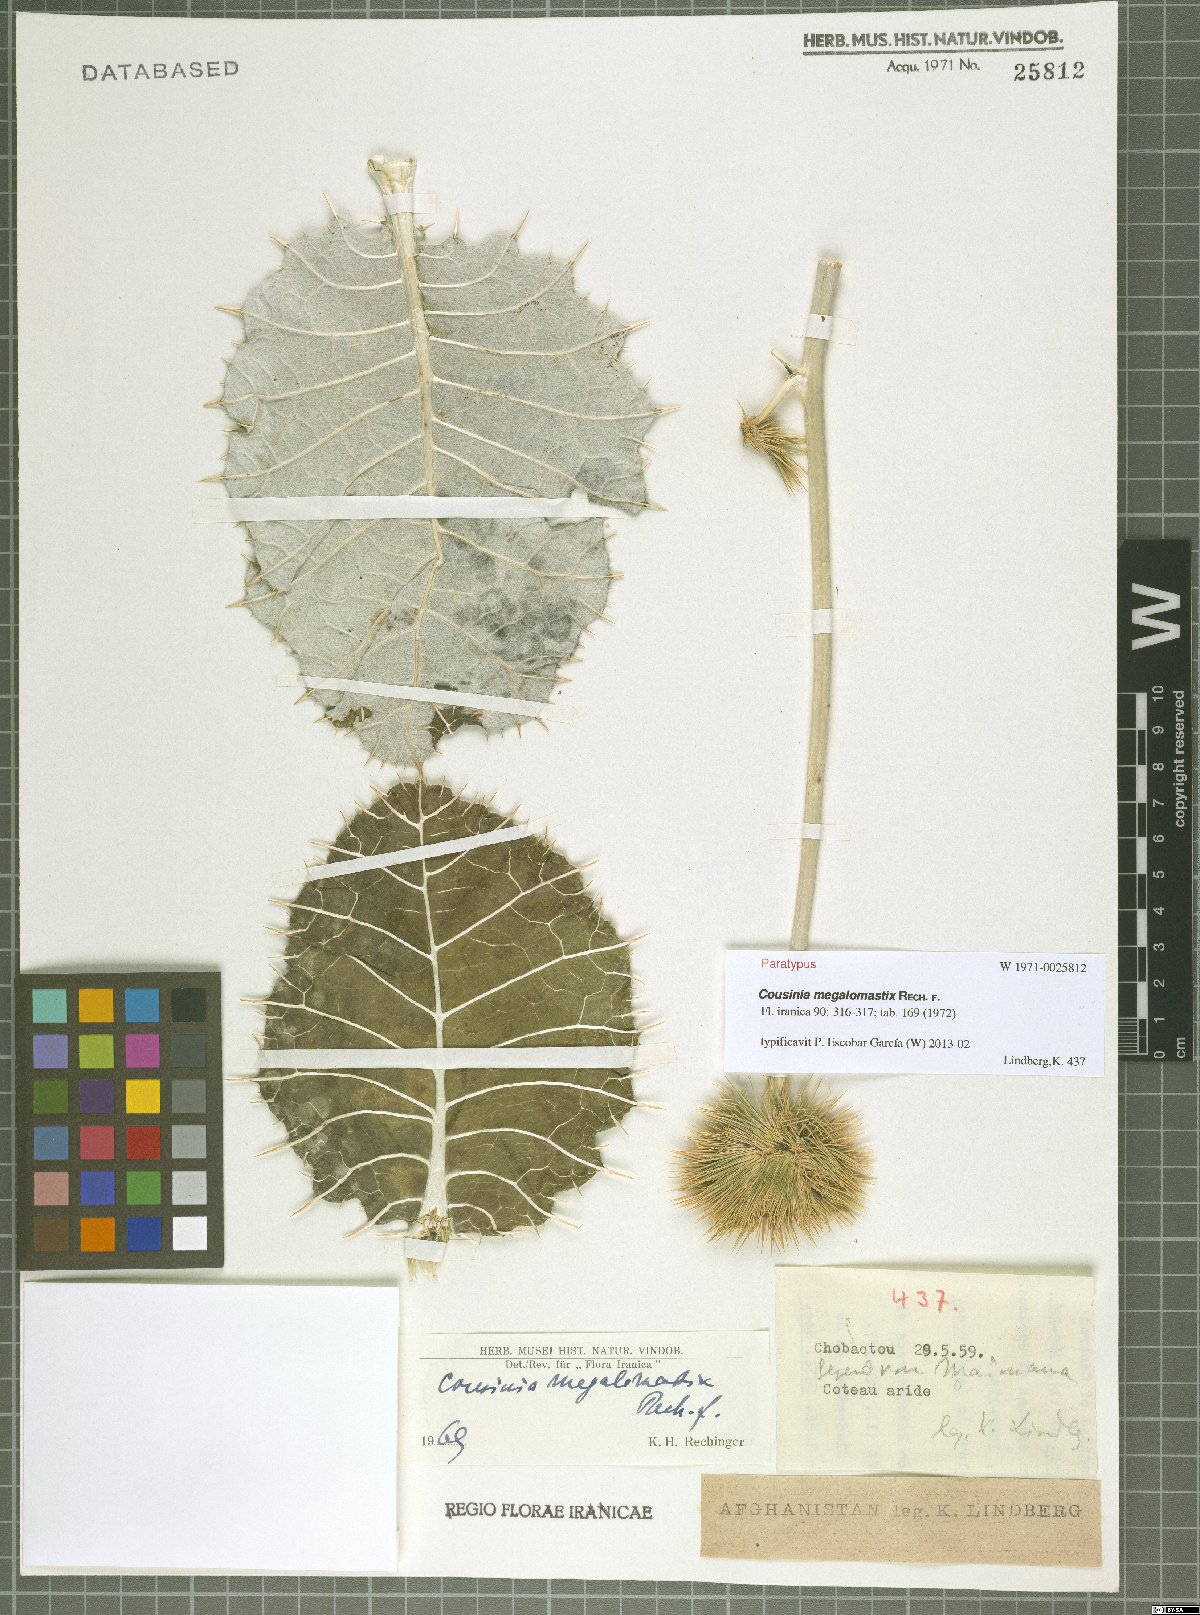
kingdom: Plantae
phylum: Tracheophyta
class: Magnoliopsida
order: Asterales
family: Asteraceae
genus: Cousinia
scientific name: Cousinia megalomastix
